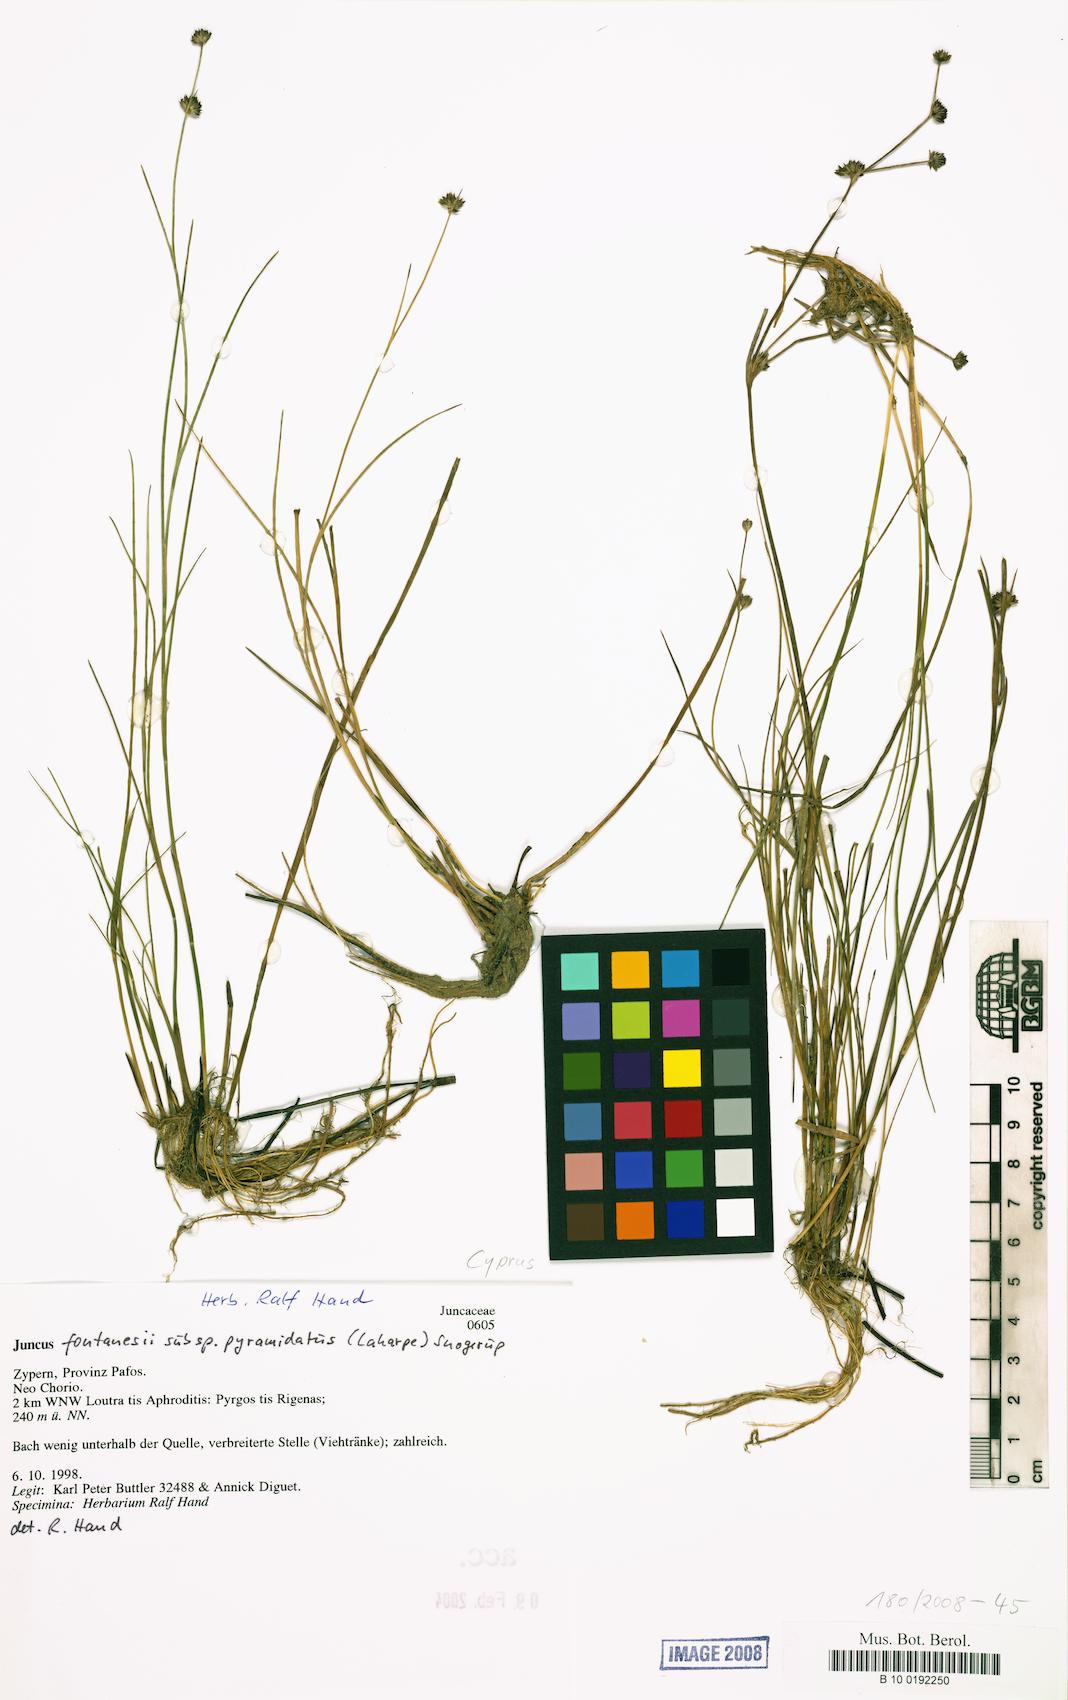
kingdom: Plantae
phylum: Tracheophyta
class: Liliopsida
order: Poales
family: Juncaceae
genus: Juncus
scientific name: Juncus fontanesii
